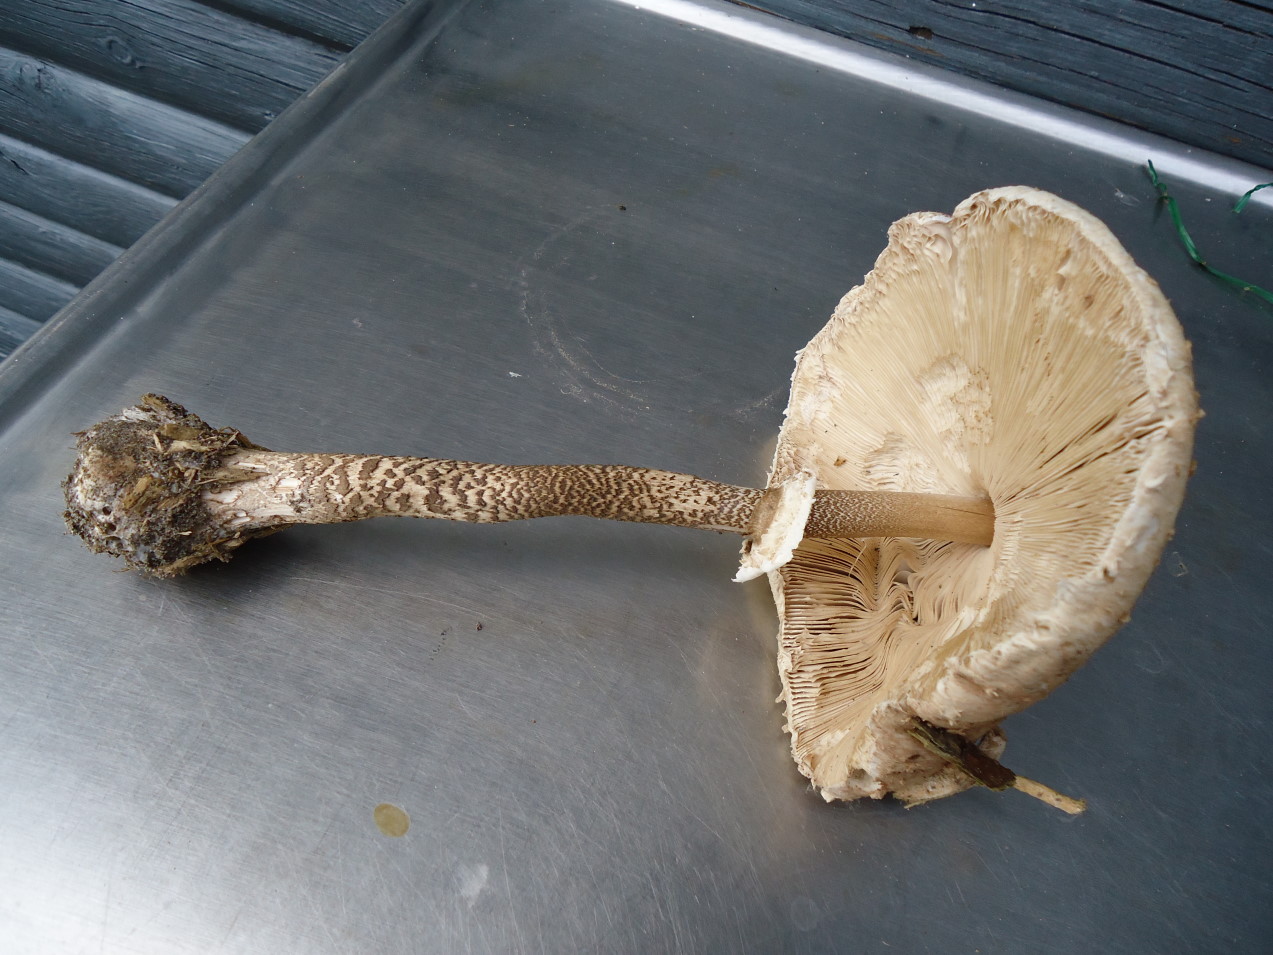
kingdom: Fungi
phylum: Basidiomycota
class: Agaricomycetes
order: Agaricales
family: Agaricaceae
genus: Macrolepiota
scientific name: Macrolepiota procera
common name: stor kæmpeparasolhat
